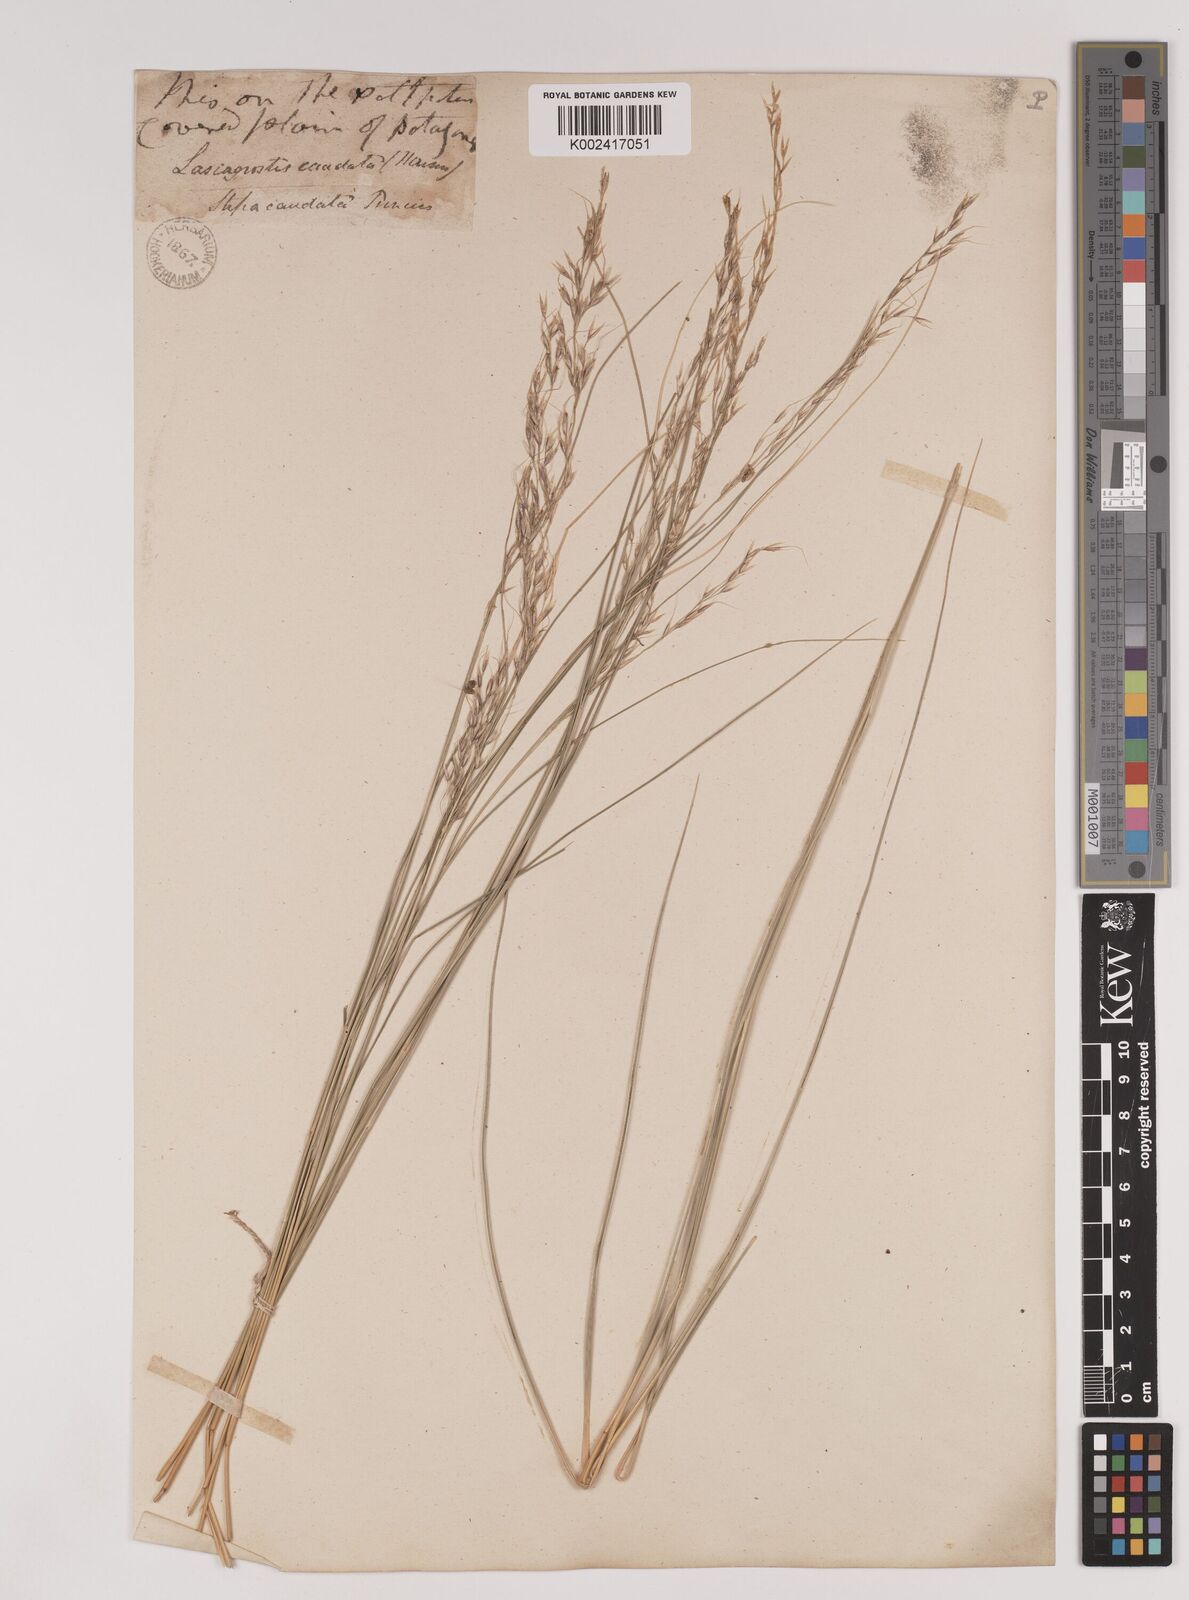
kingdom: Plantae
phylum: Tracheophyta
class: Liliopsida
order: Poales
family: Poaceae
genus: Amelichloa
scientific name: Amelichloa brachychaeta
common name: Shortbristled needlegrass
